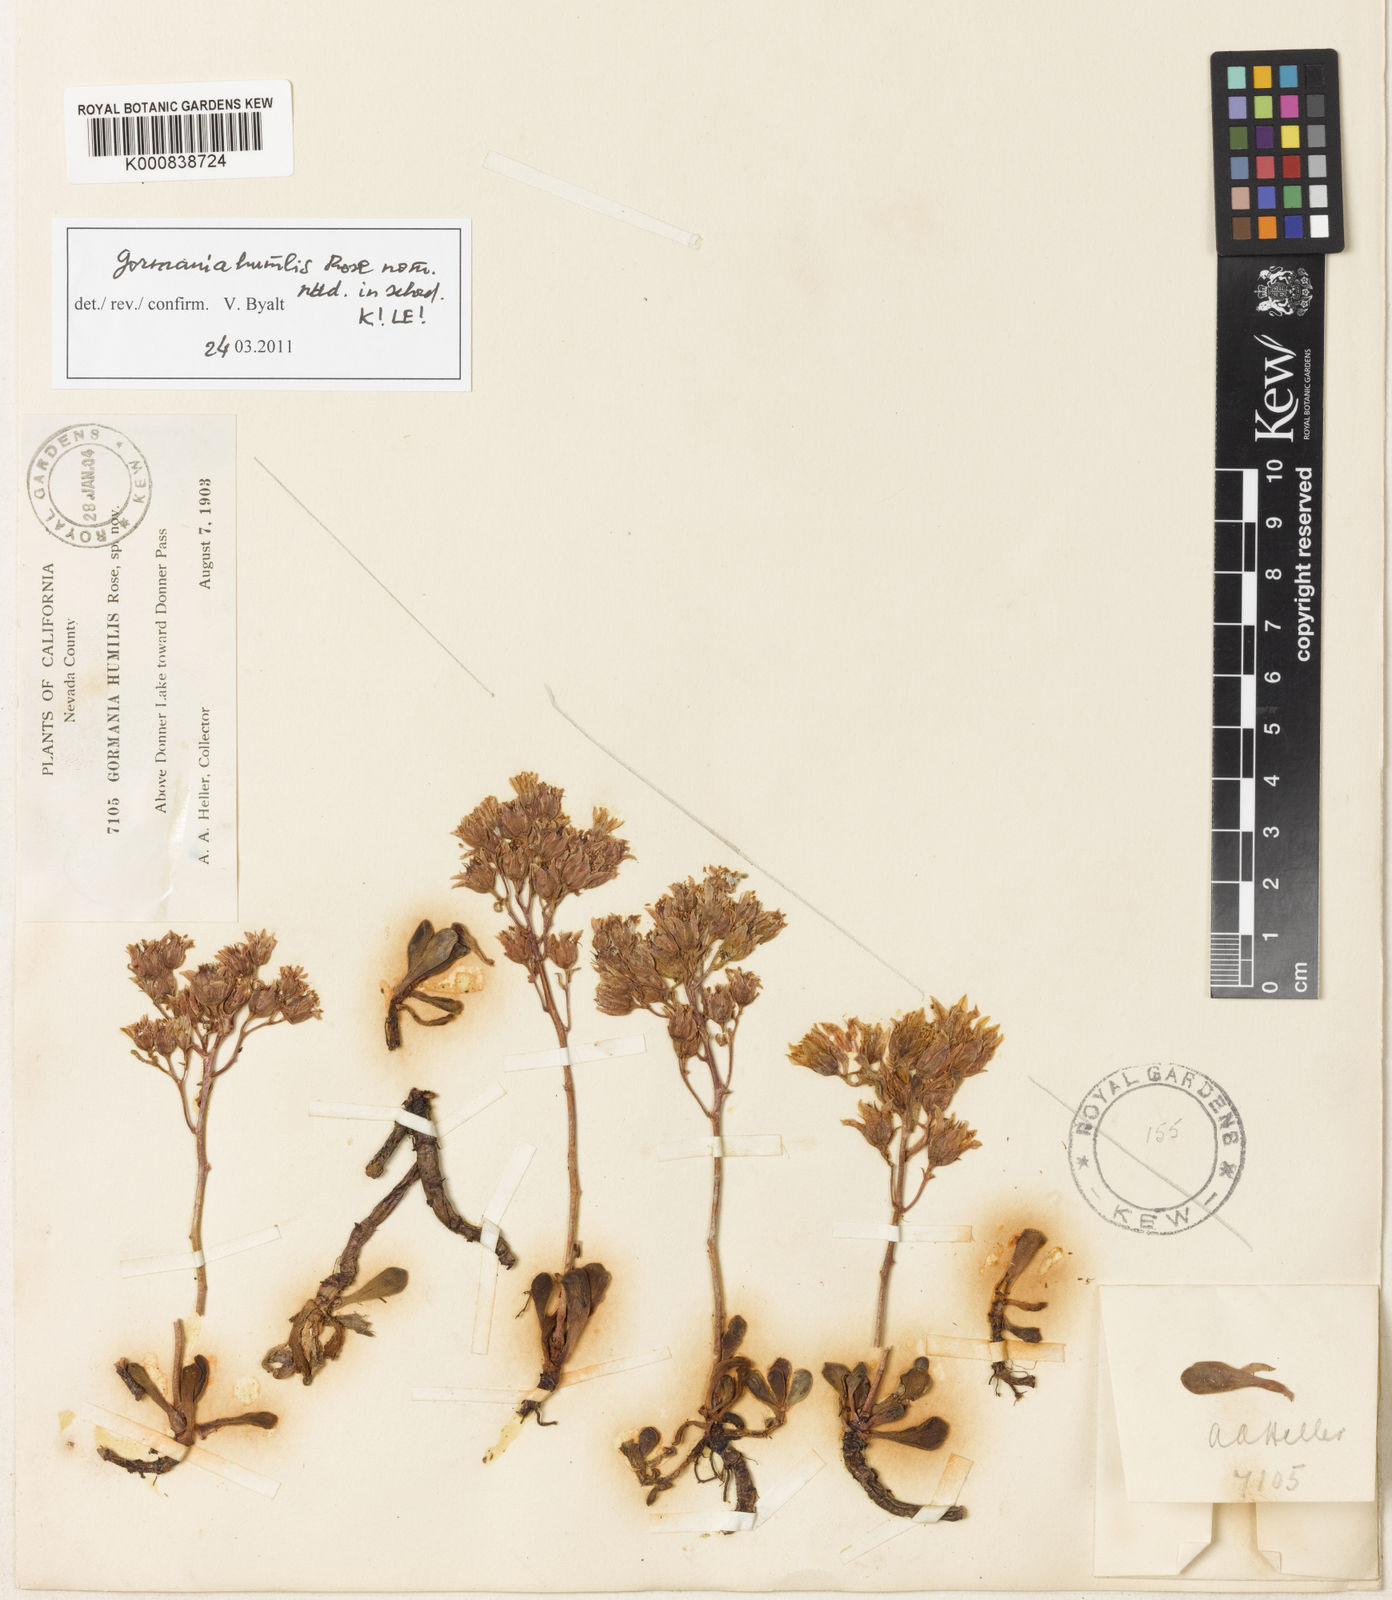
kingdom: Plantae
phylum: Tracheophyta
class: Magnoliopsida
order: Saxifragales
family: Crassulaceae
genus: Rhodiola
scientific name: Rhodiola humilis
